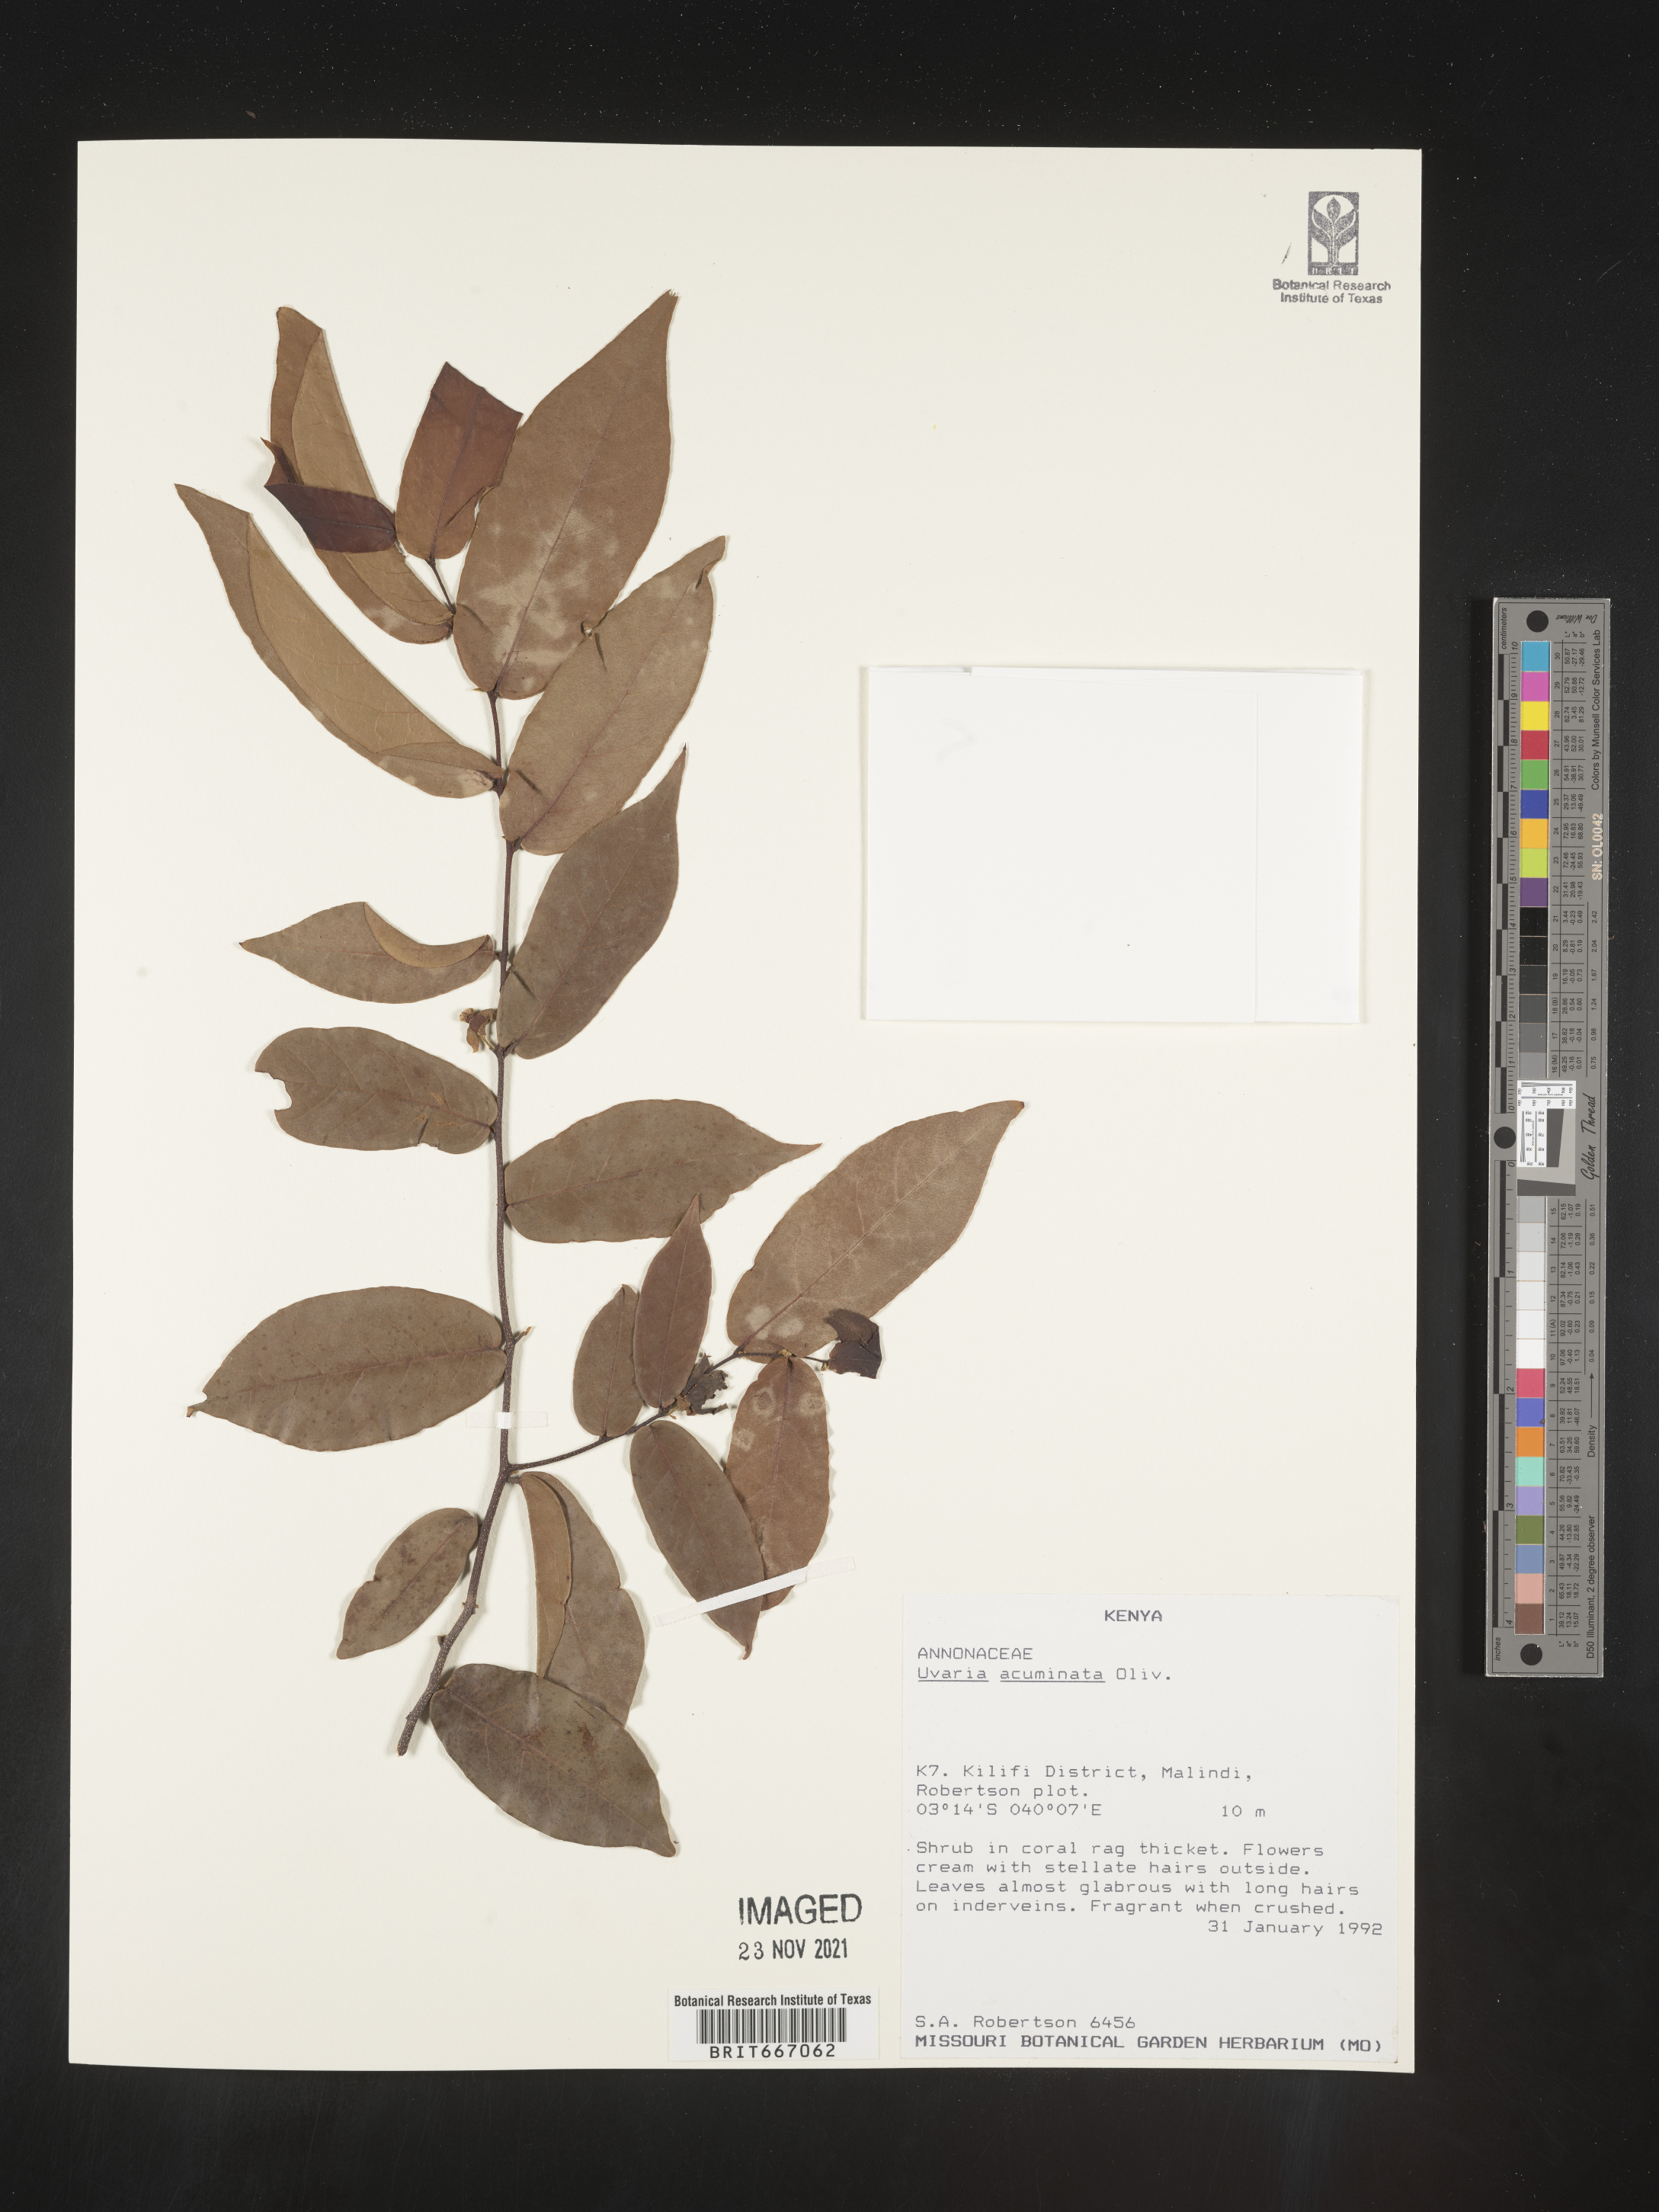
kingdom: Plantae
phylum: Tracheophyta
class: Magnoliopsida
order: Magnoliales
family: Annonaceae
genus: Uvaria
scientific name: Uvaria
